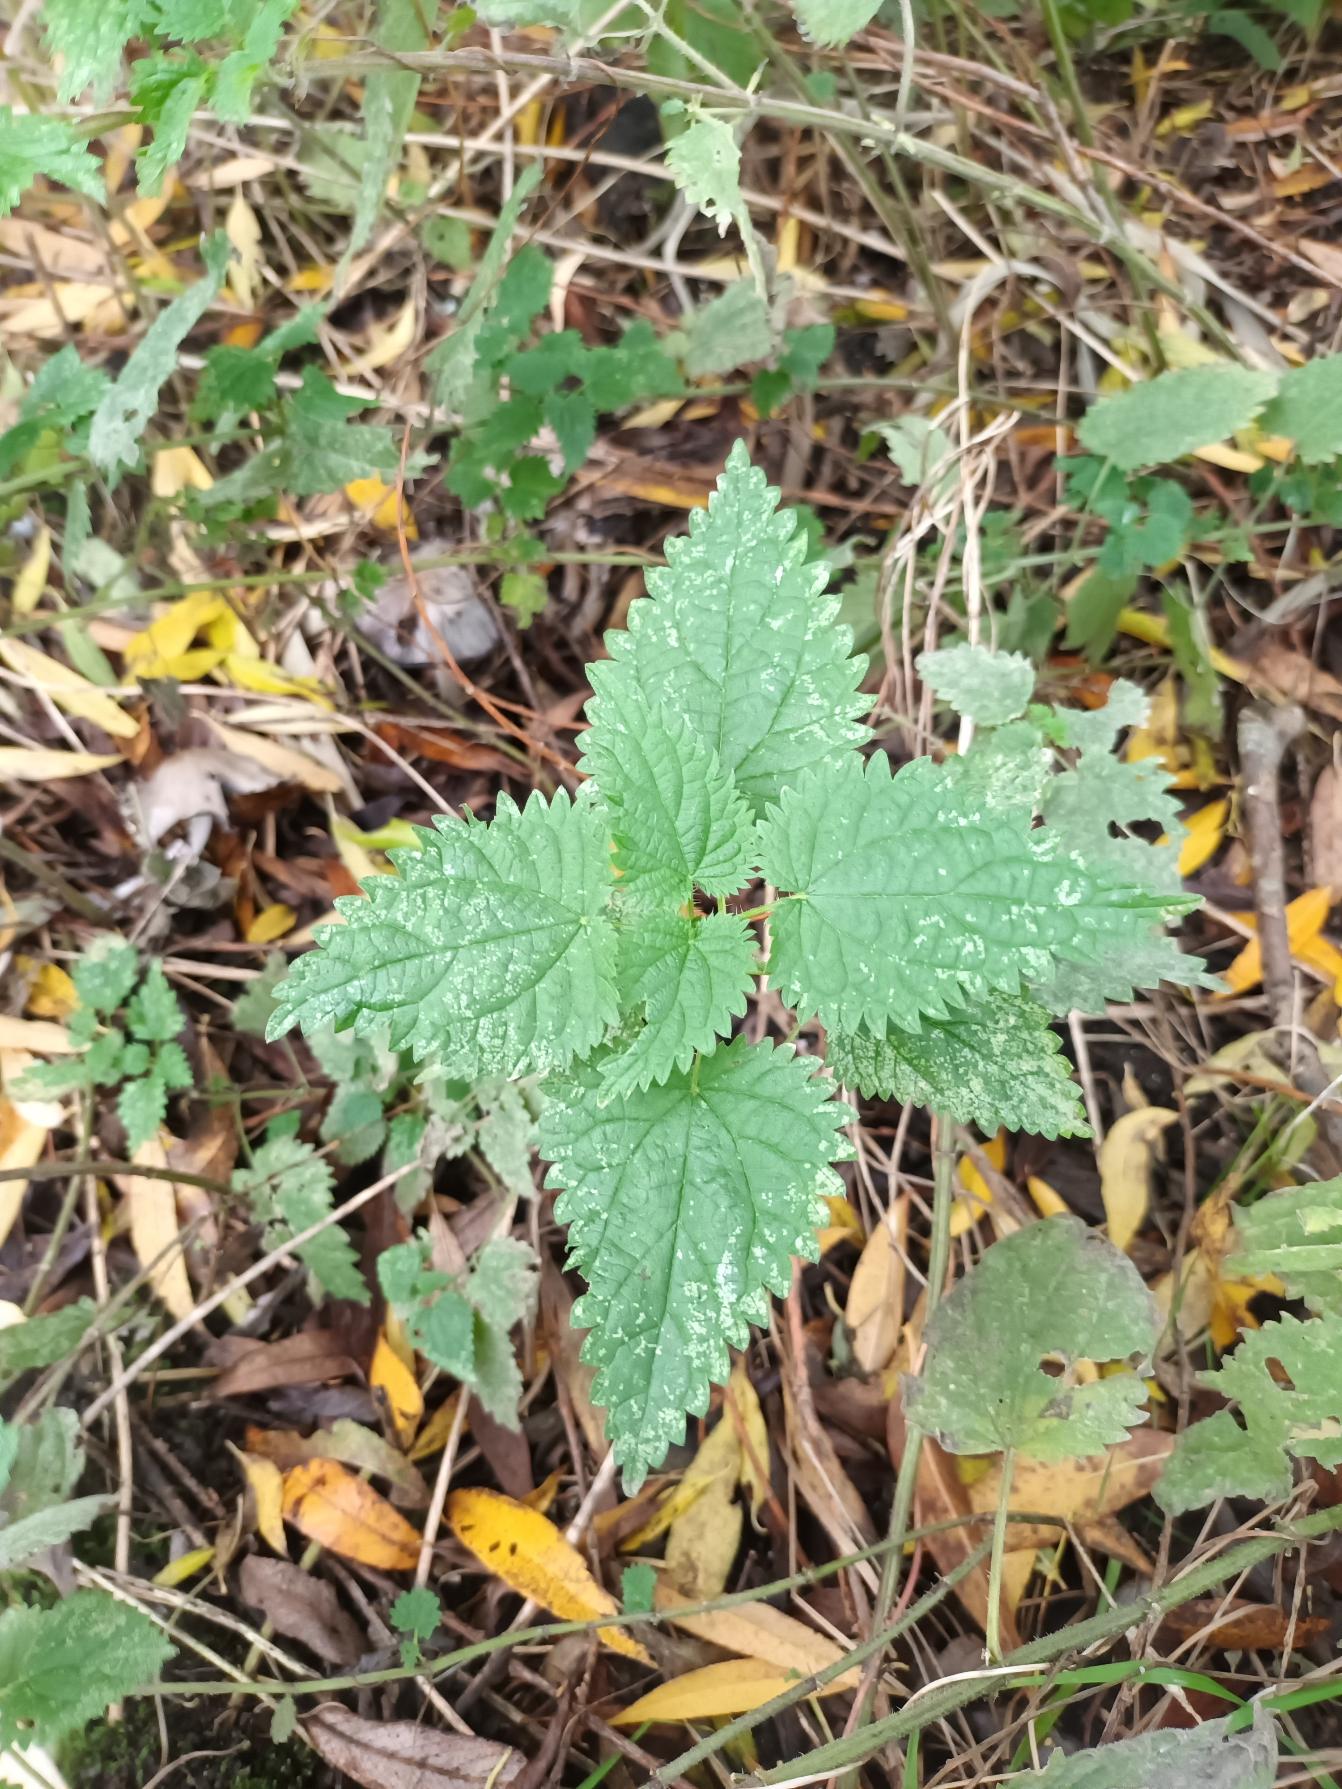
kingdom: Plantae
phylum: Tracheophyta
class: Magnoliopsida
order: Rosales
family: Urticaceae
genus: Urtica
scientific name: Urtica dioica
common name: Stor nælde
